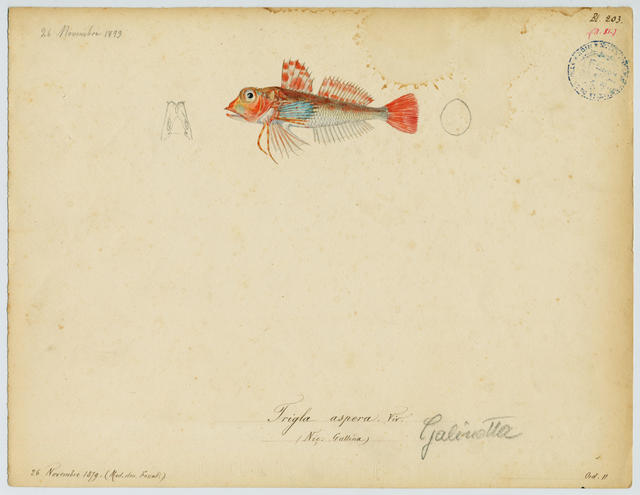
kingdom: Animalia
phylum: Chordata
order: Scorpaeniformes
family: Triglidae
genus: Lepidotrigla
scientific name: Lepidotrigla cavillone
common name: Large-scaled gurnard
